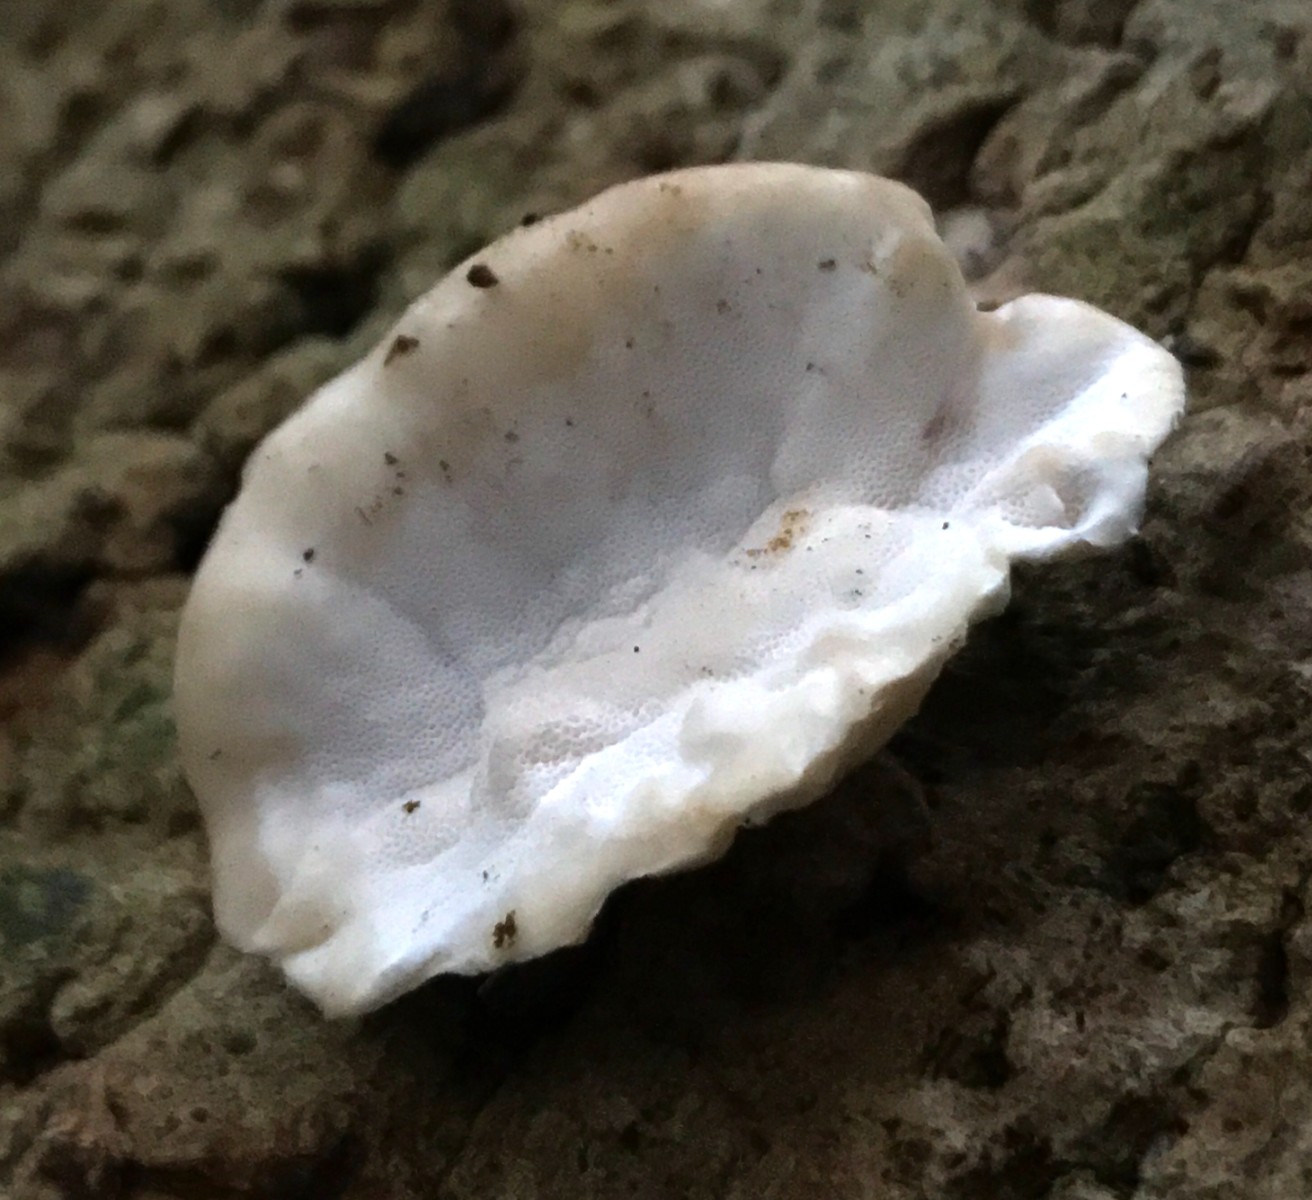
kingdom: Fungi
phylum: Basidiomycota
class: Agaricomycetes
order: Polyporales
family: Incrustoporiaceae
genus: Skeletocutis
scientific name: Skeletocutis nemoralis
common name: stor krystalporesvamp
